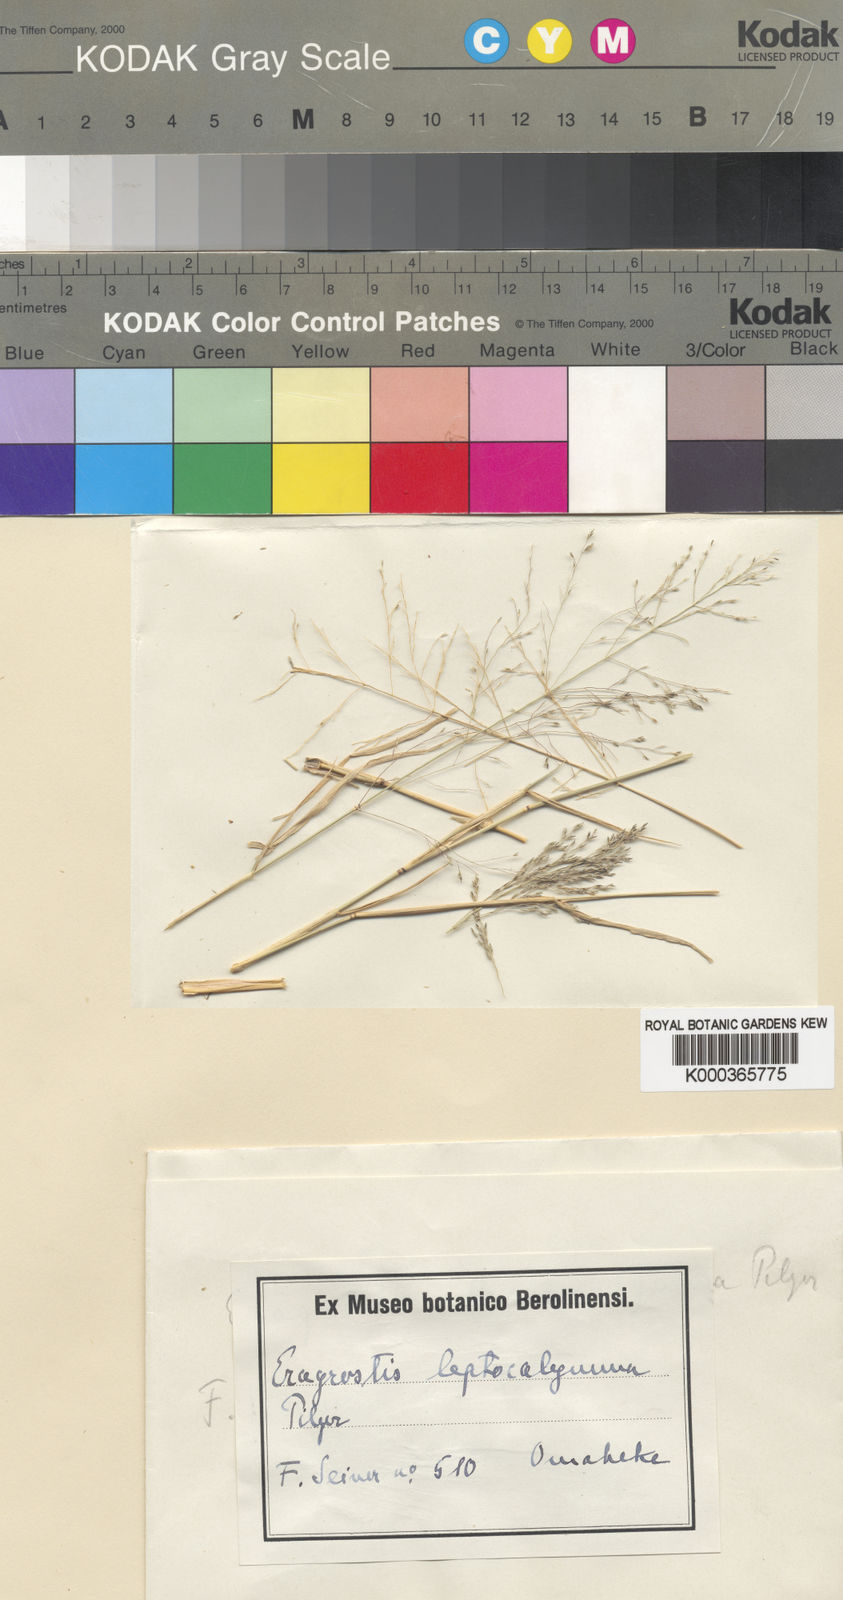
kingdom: Plantae
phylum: Tracheophyta
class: Liliopsida
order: Poales
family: Poaceae
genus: Eragrostis
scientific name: Eragrostis cylindriflora
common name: Cylinderflower lovegrass
